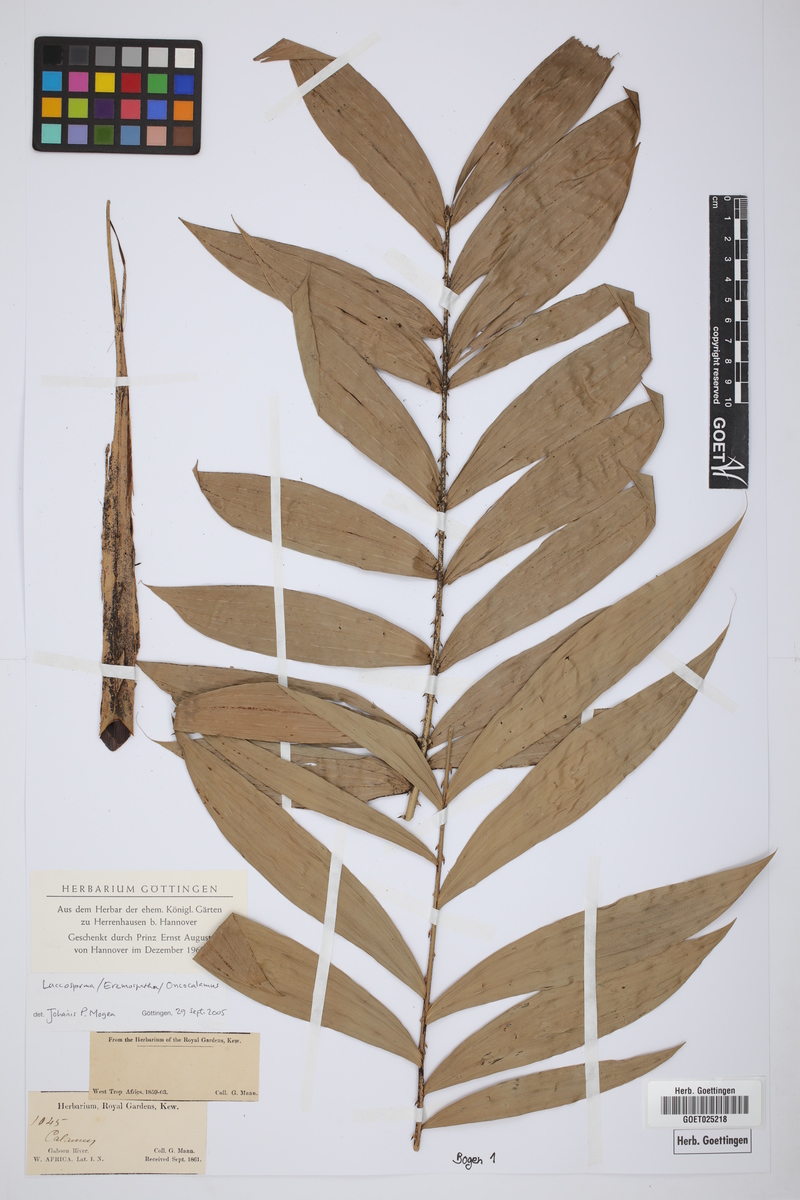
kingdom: Plantae
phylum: Tracheophyta
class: Liliopsida
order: Arecales
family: Arecaceae
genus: Laccosperma
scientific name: Laccosperma
